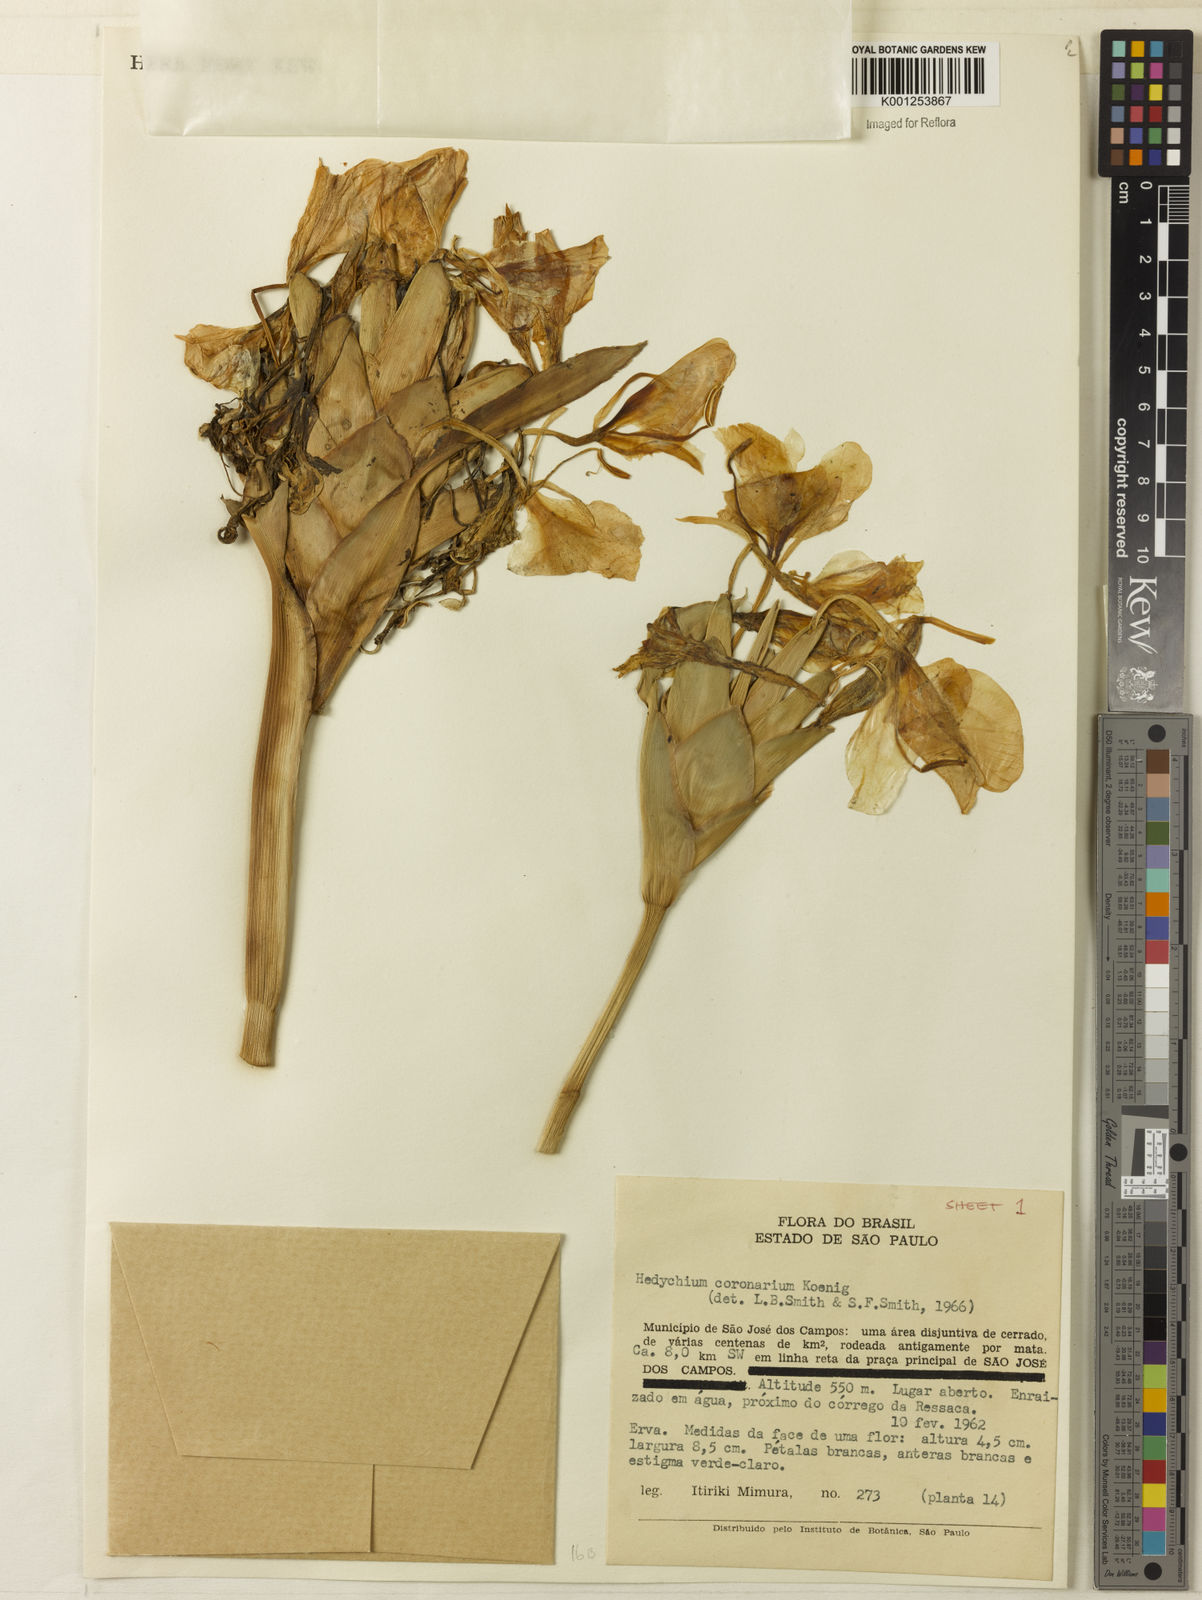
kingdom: Plantae
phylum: Tracheophyta
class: Liliopsida
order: Zingiberales
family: Zingiberaceae
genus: Hedychium
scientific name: Hedychium coronarium
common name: White garland-lily
